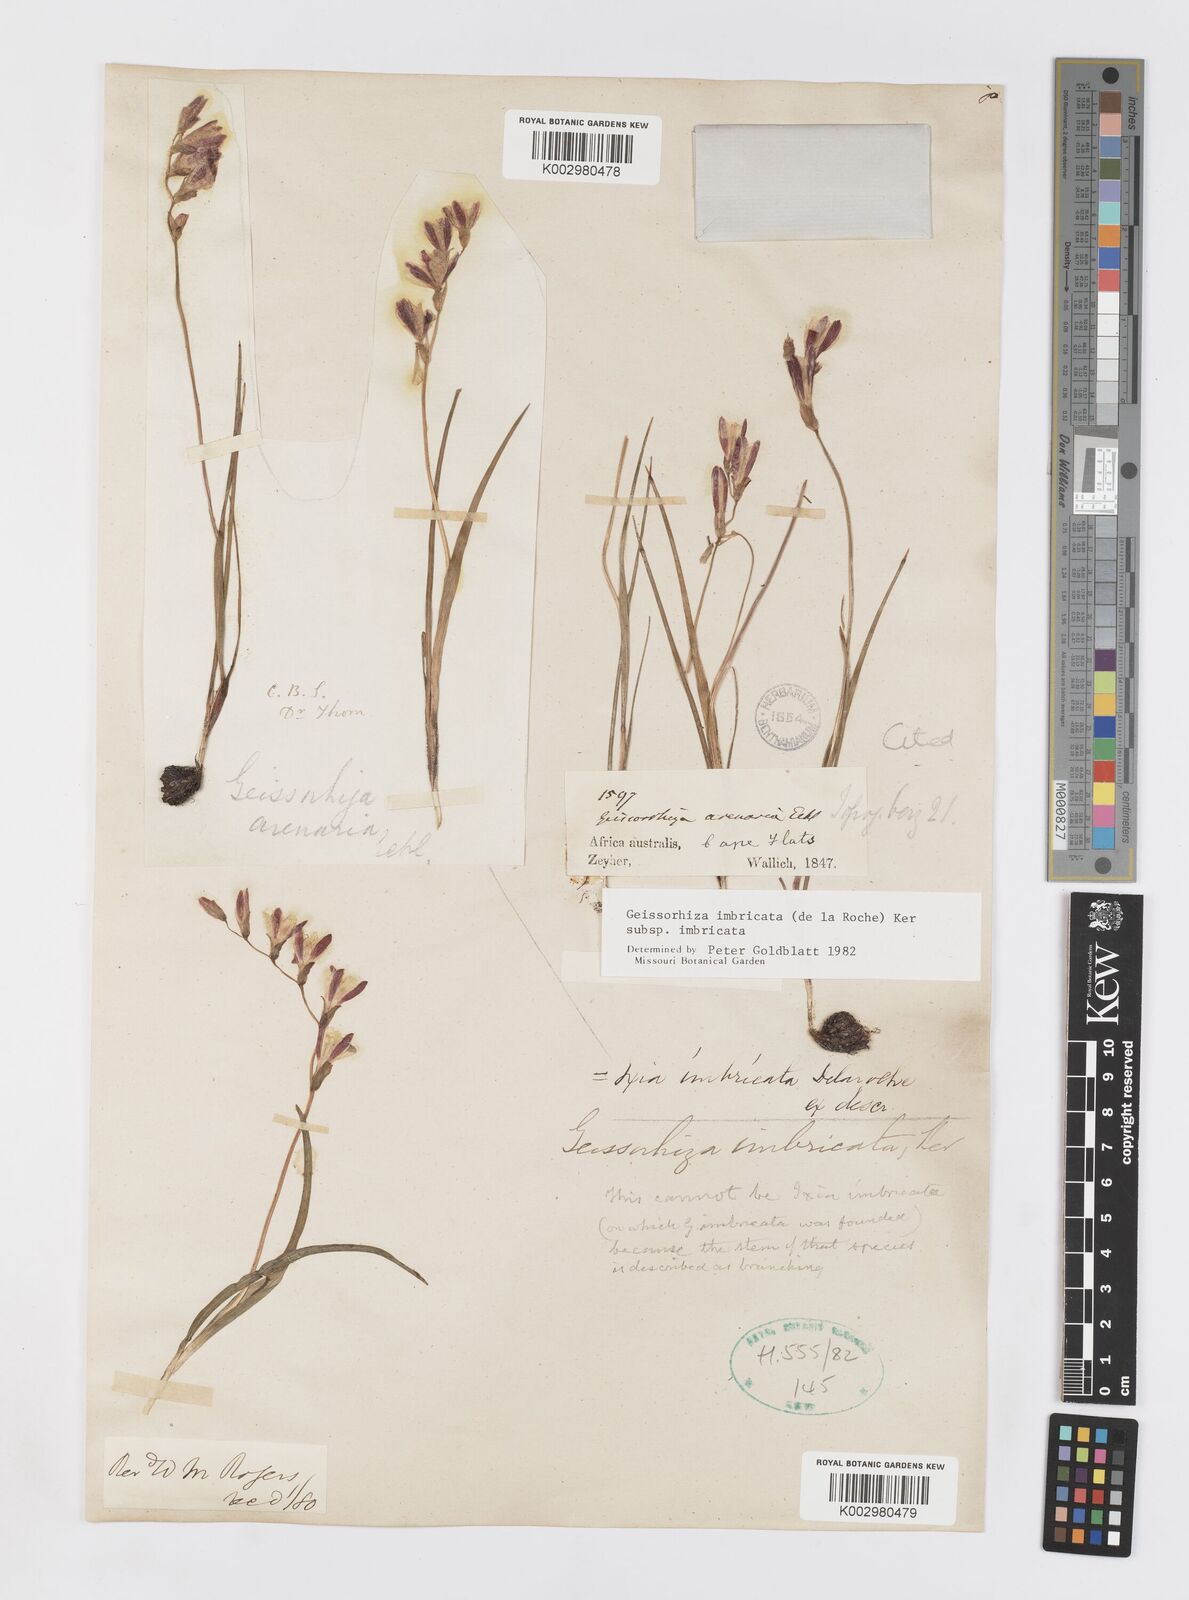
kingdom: Plantae
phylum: Tracheophyta
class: Liliopsida
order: Asparagales
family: Iridaceae
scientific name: Iridaceae
